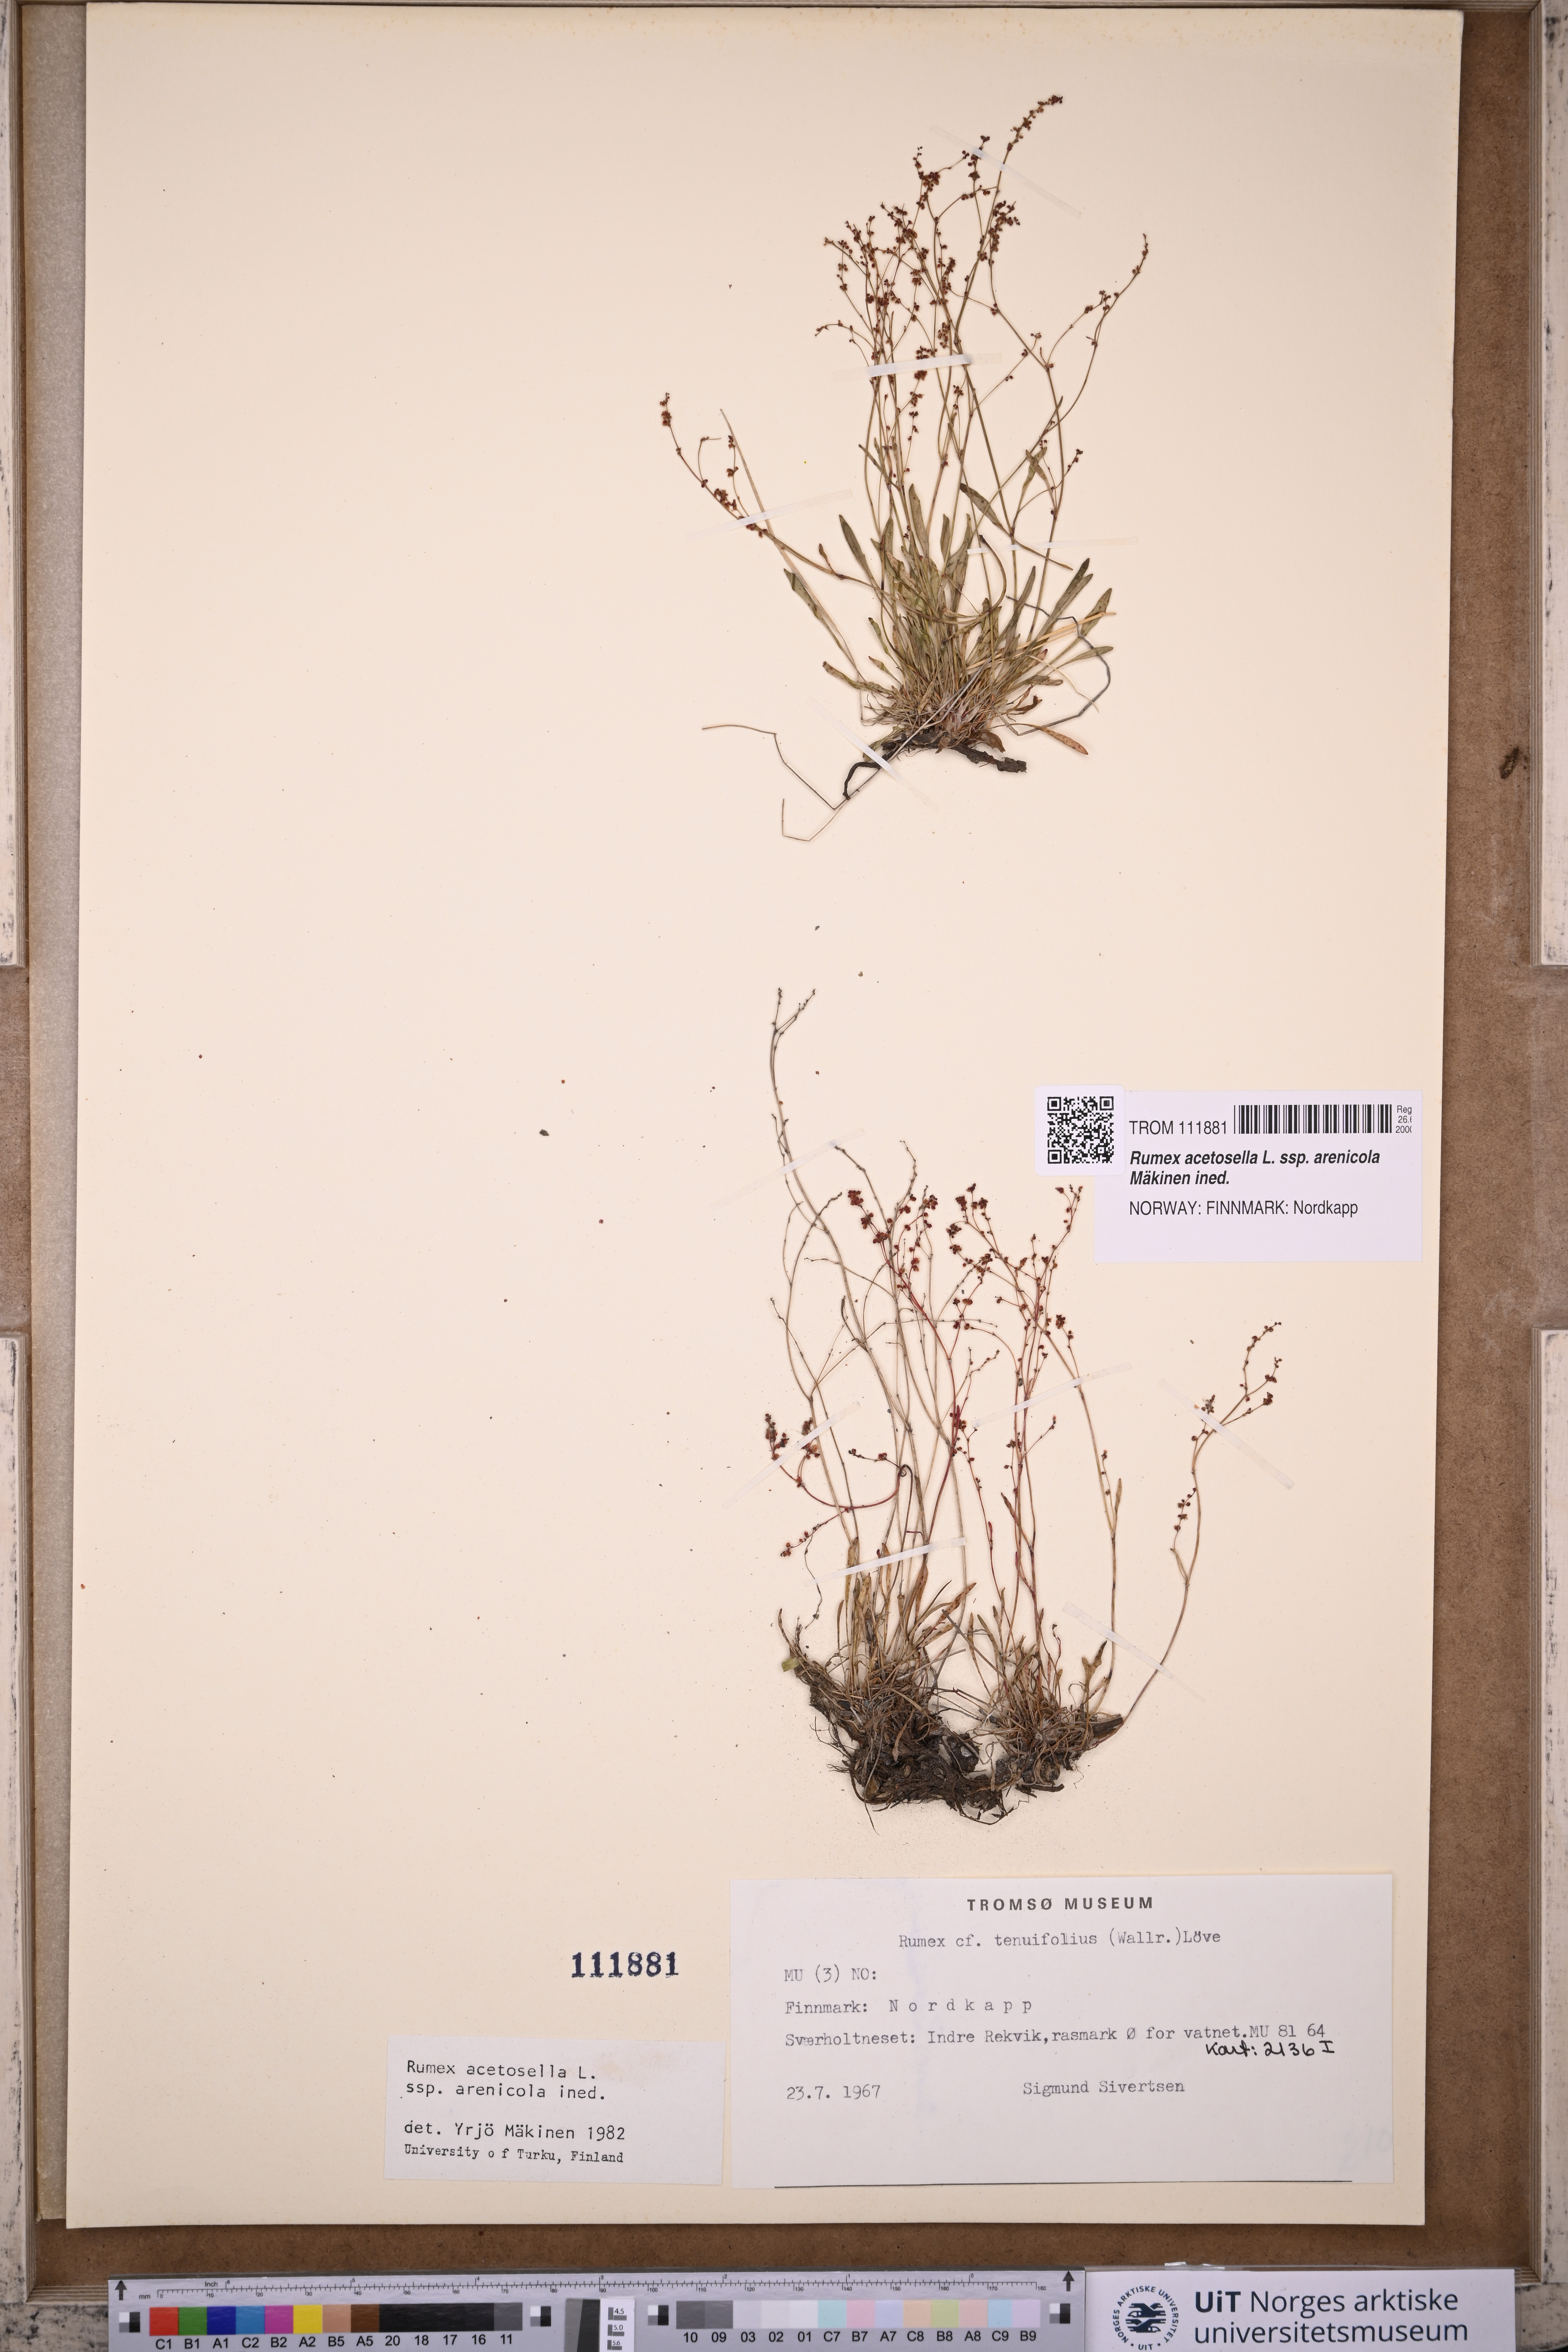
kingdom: Plantae
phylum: Tracheophyta
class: Magnoliopsida
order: Caryophyllales
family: Polygonaceae
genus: Rumex
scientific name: Rumex acetosella
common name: Common sheep sorrel
